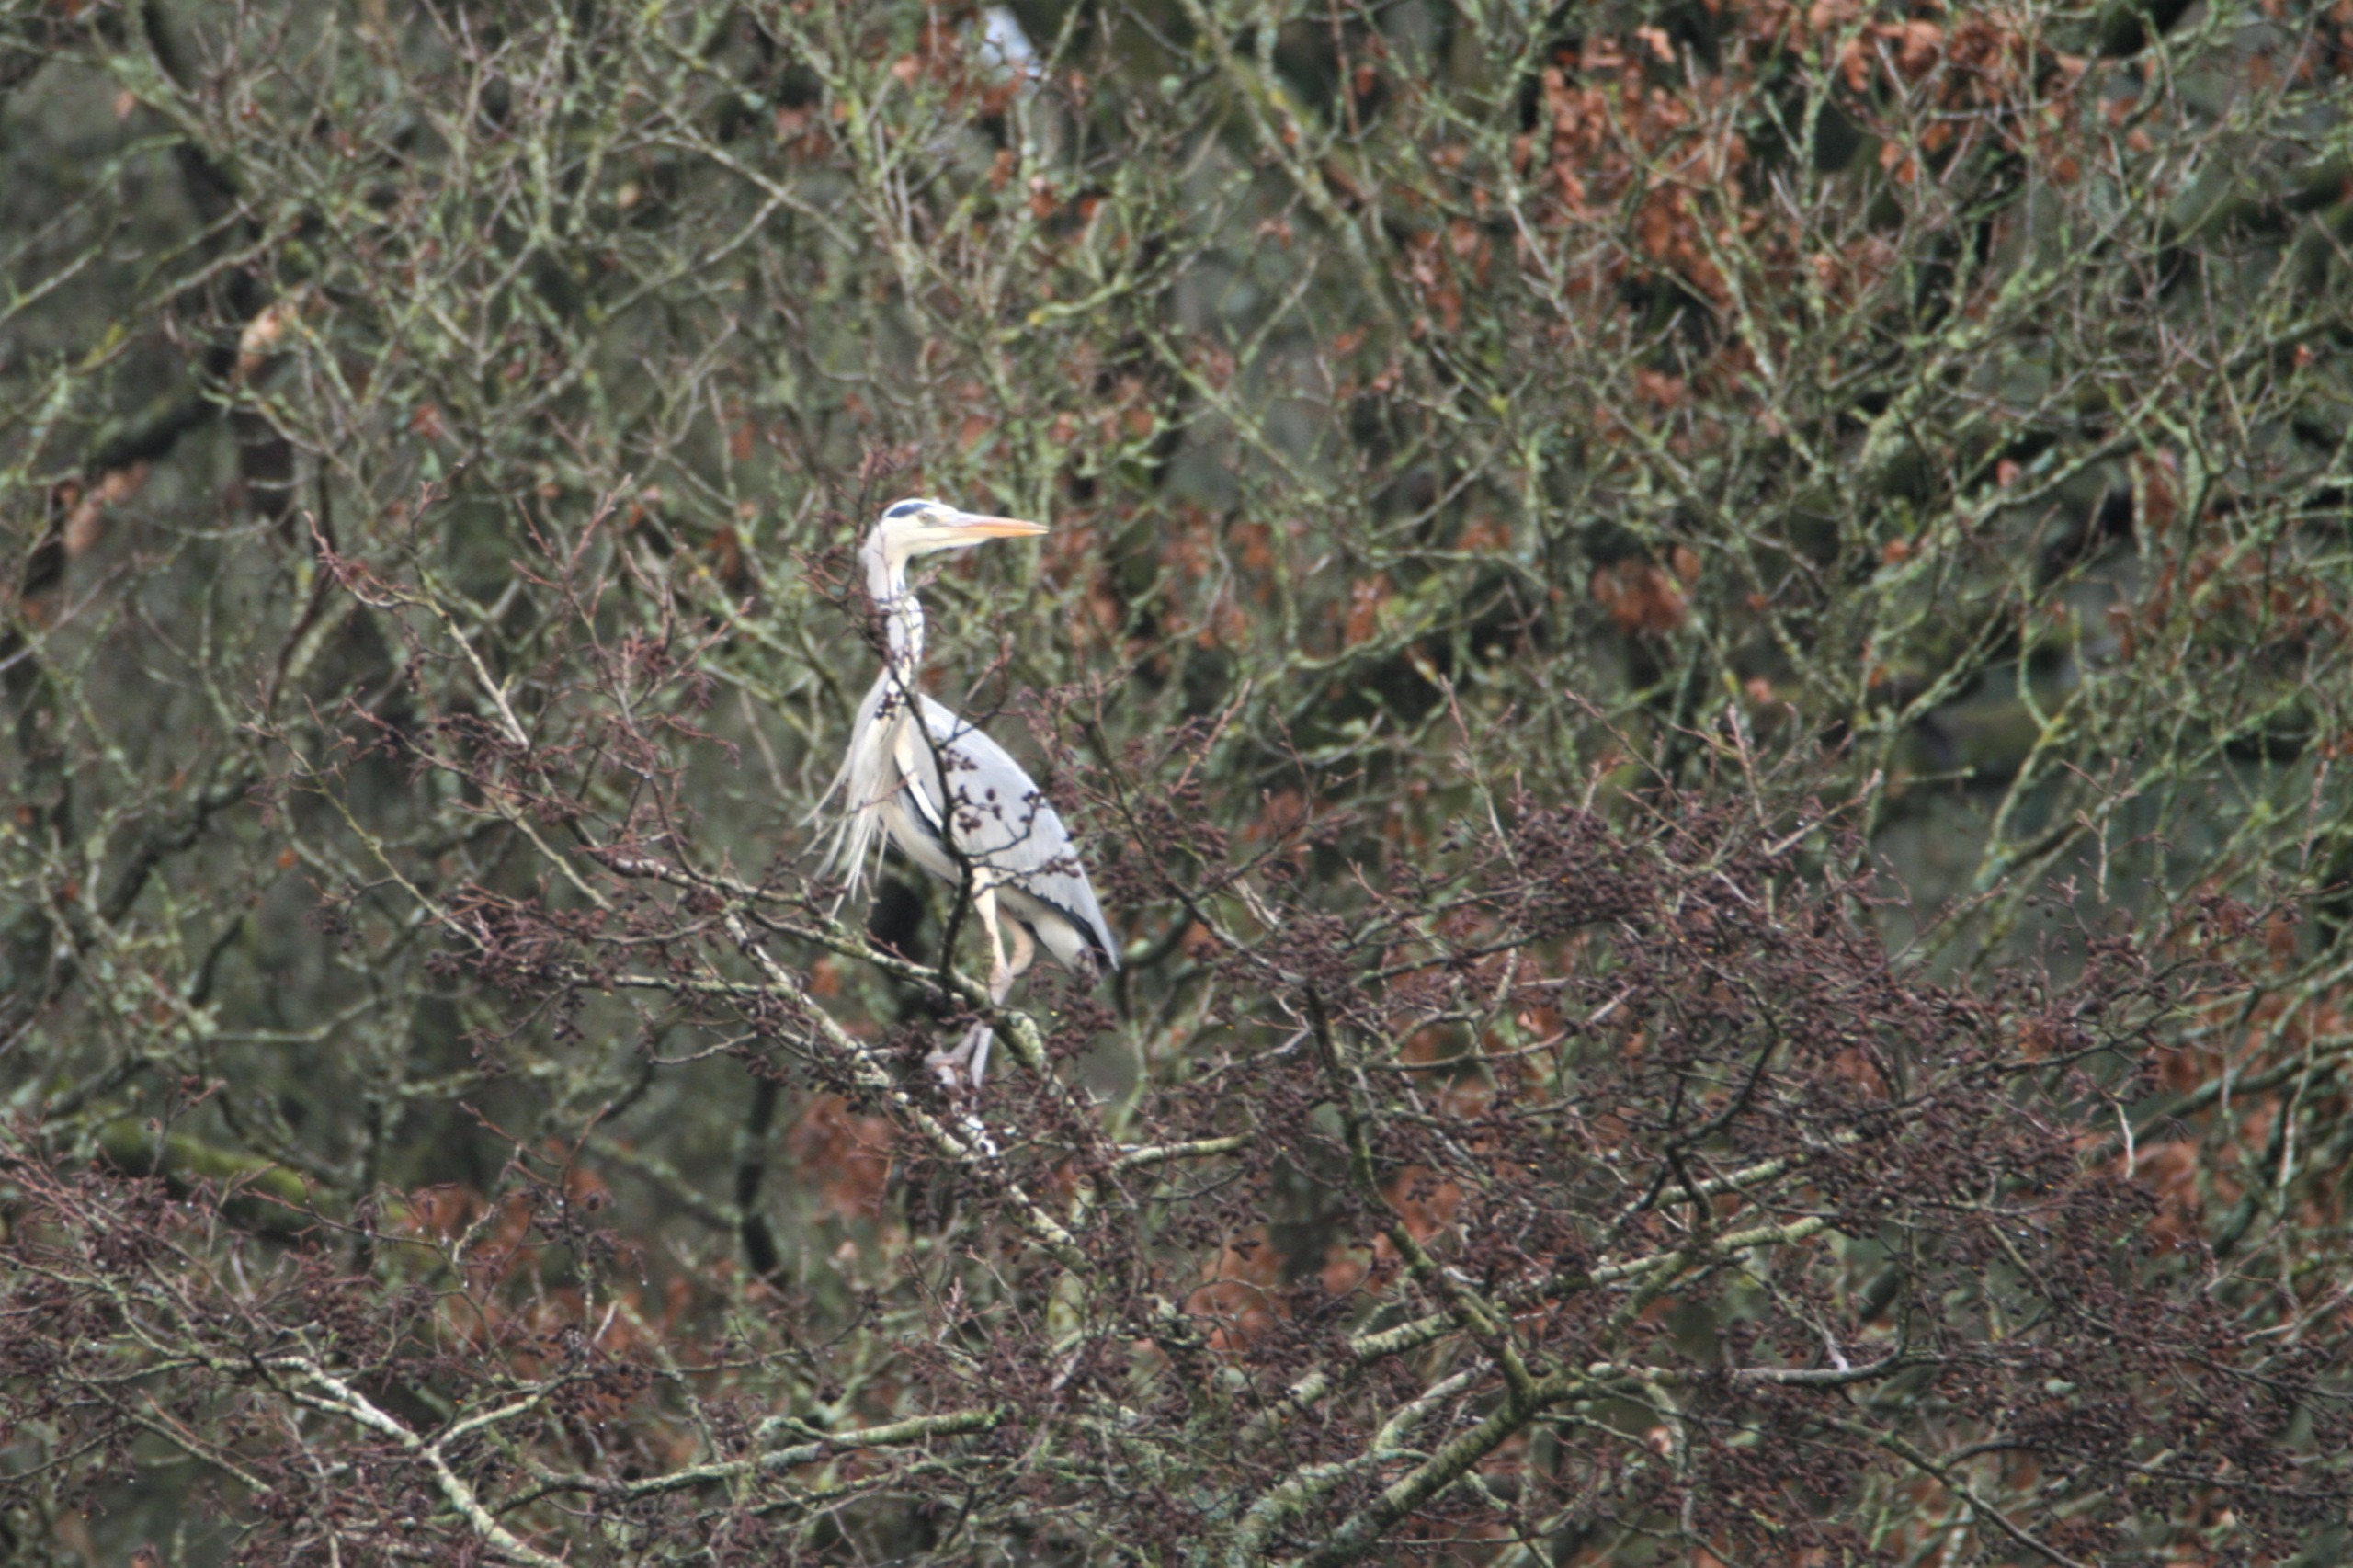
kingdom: Animalia
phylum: Chordata
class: Aves
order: Pelecaniformes
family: Ardeidae
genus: Ardea
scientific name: Ardea cinerea
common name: Fiskehejre
